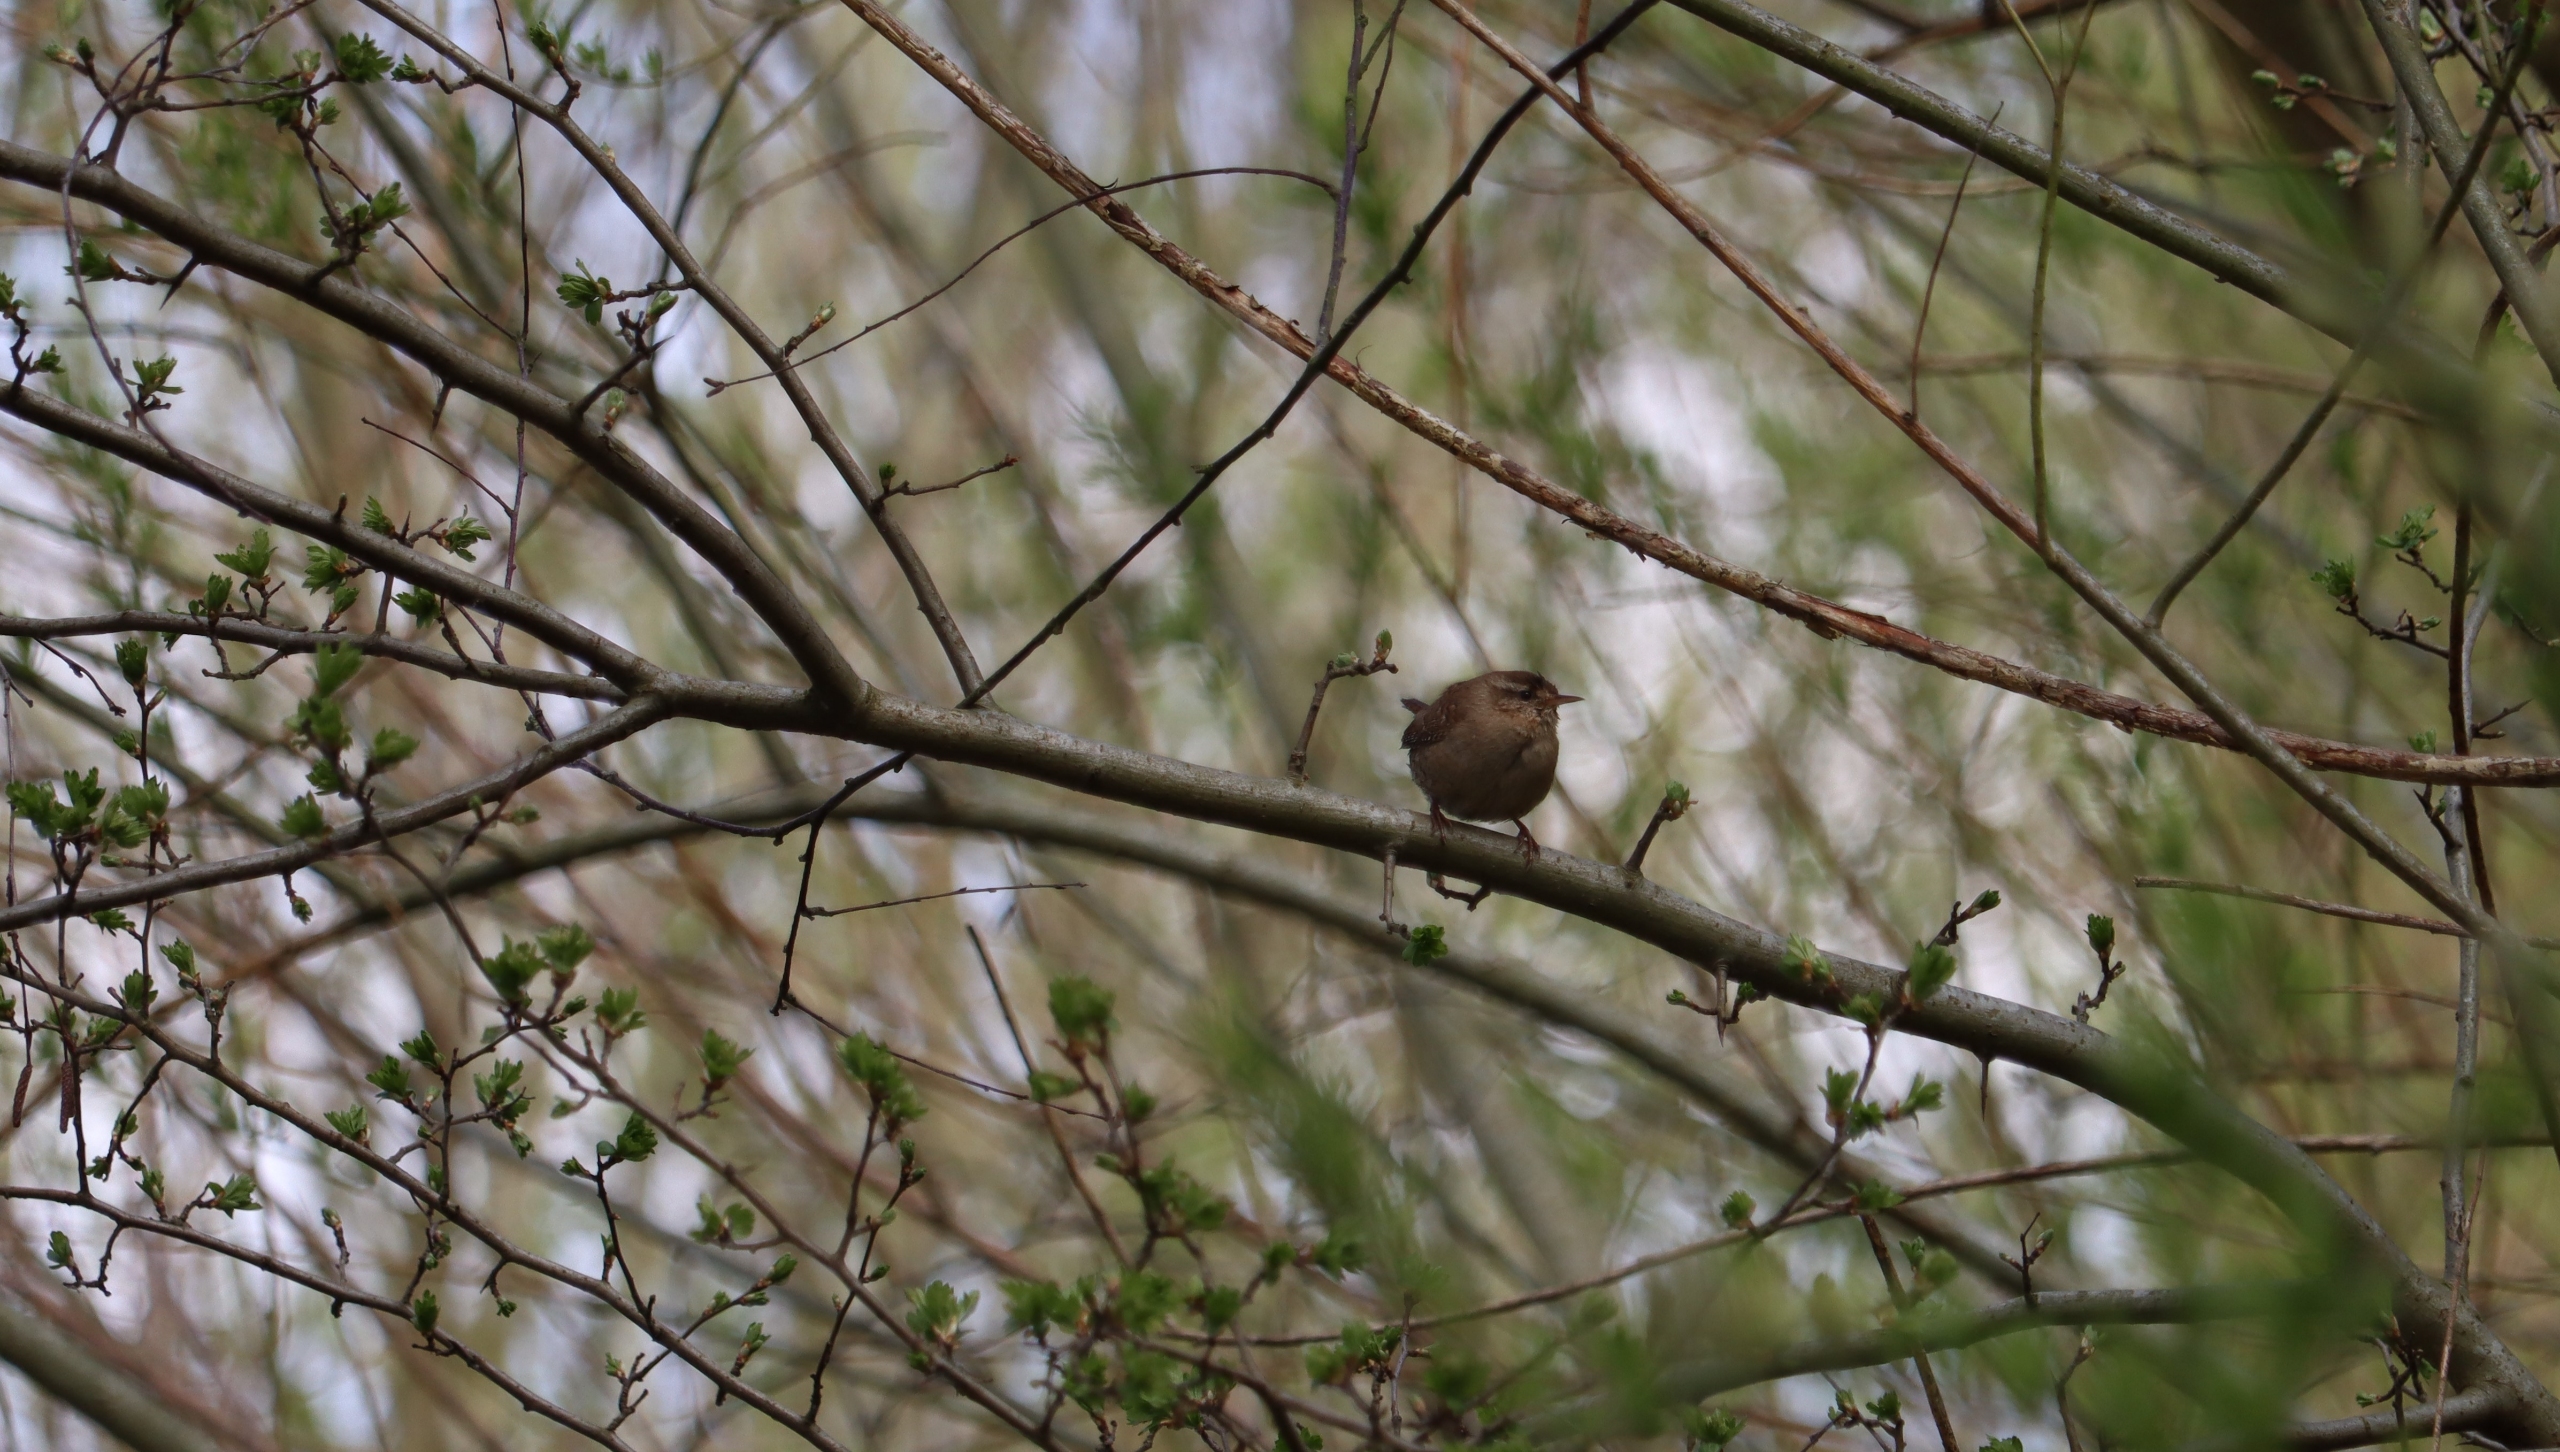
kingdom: Animalia
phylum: Chordata
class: Aves
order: Passeriformes
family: Troglodytidae
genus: Troglodytes
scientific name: Troglodytes troglodytes
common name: Gærdesmutte
